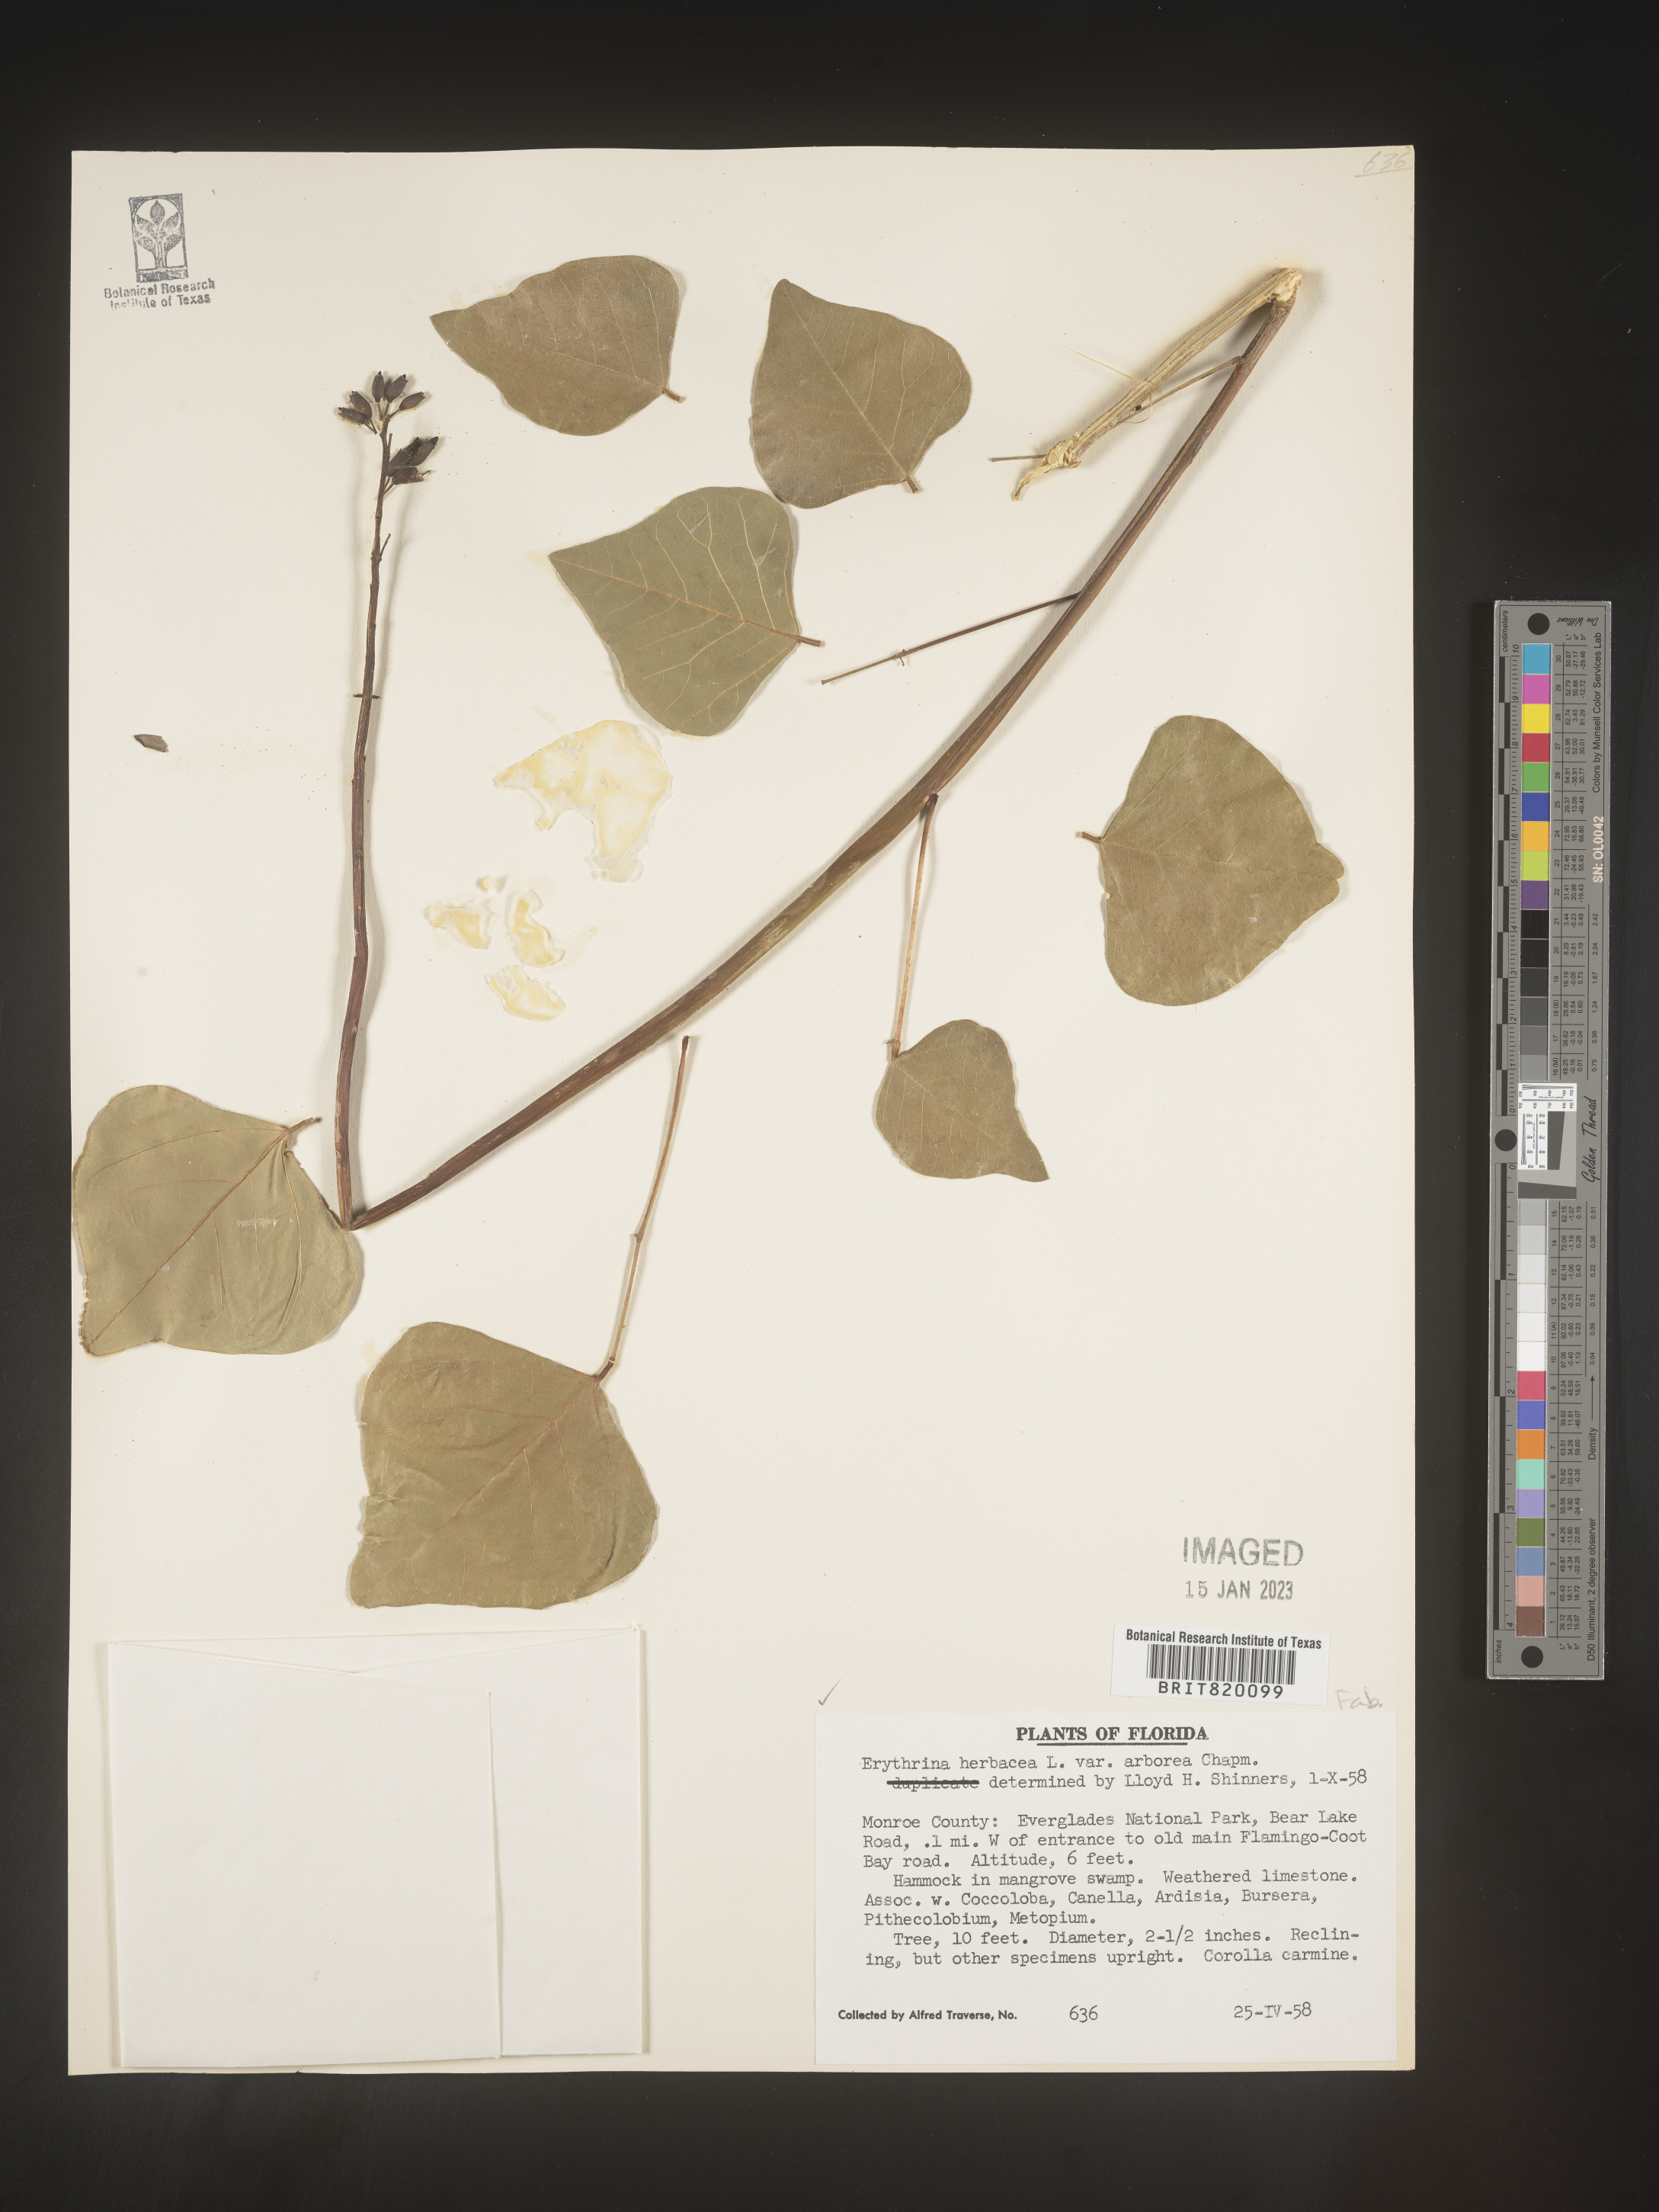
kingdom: Plantae
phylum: Tracheophyta
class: Magnoliopsida
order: Fabales
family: Fabaceae
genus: Erythrina
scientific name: Erythrina herbacea
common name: Coral-bean
